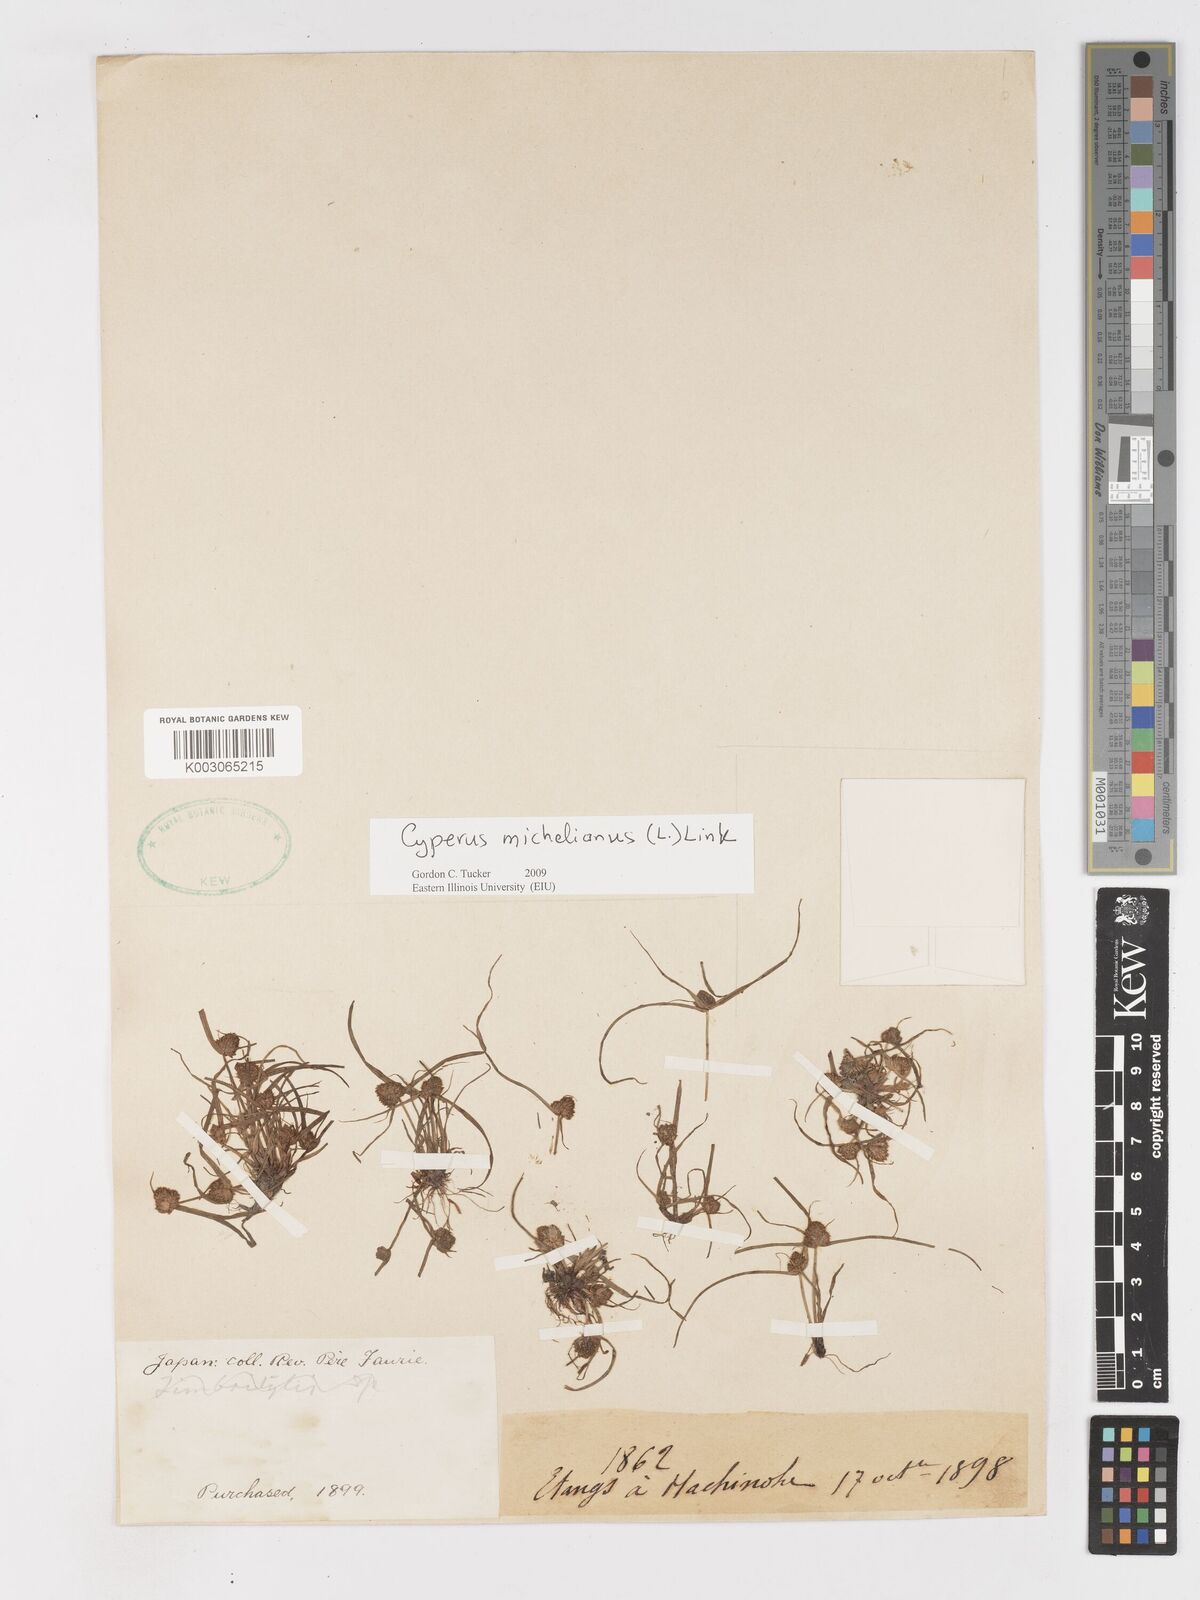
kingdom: Plantae
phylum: Tracheophyta
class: Liliopsida
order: Poales
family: Cyperaceae
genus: Cyperus
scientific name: Cyperus michelianus
